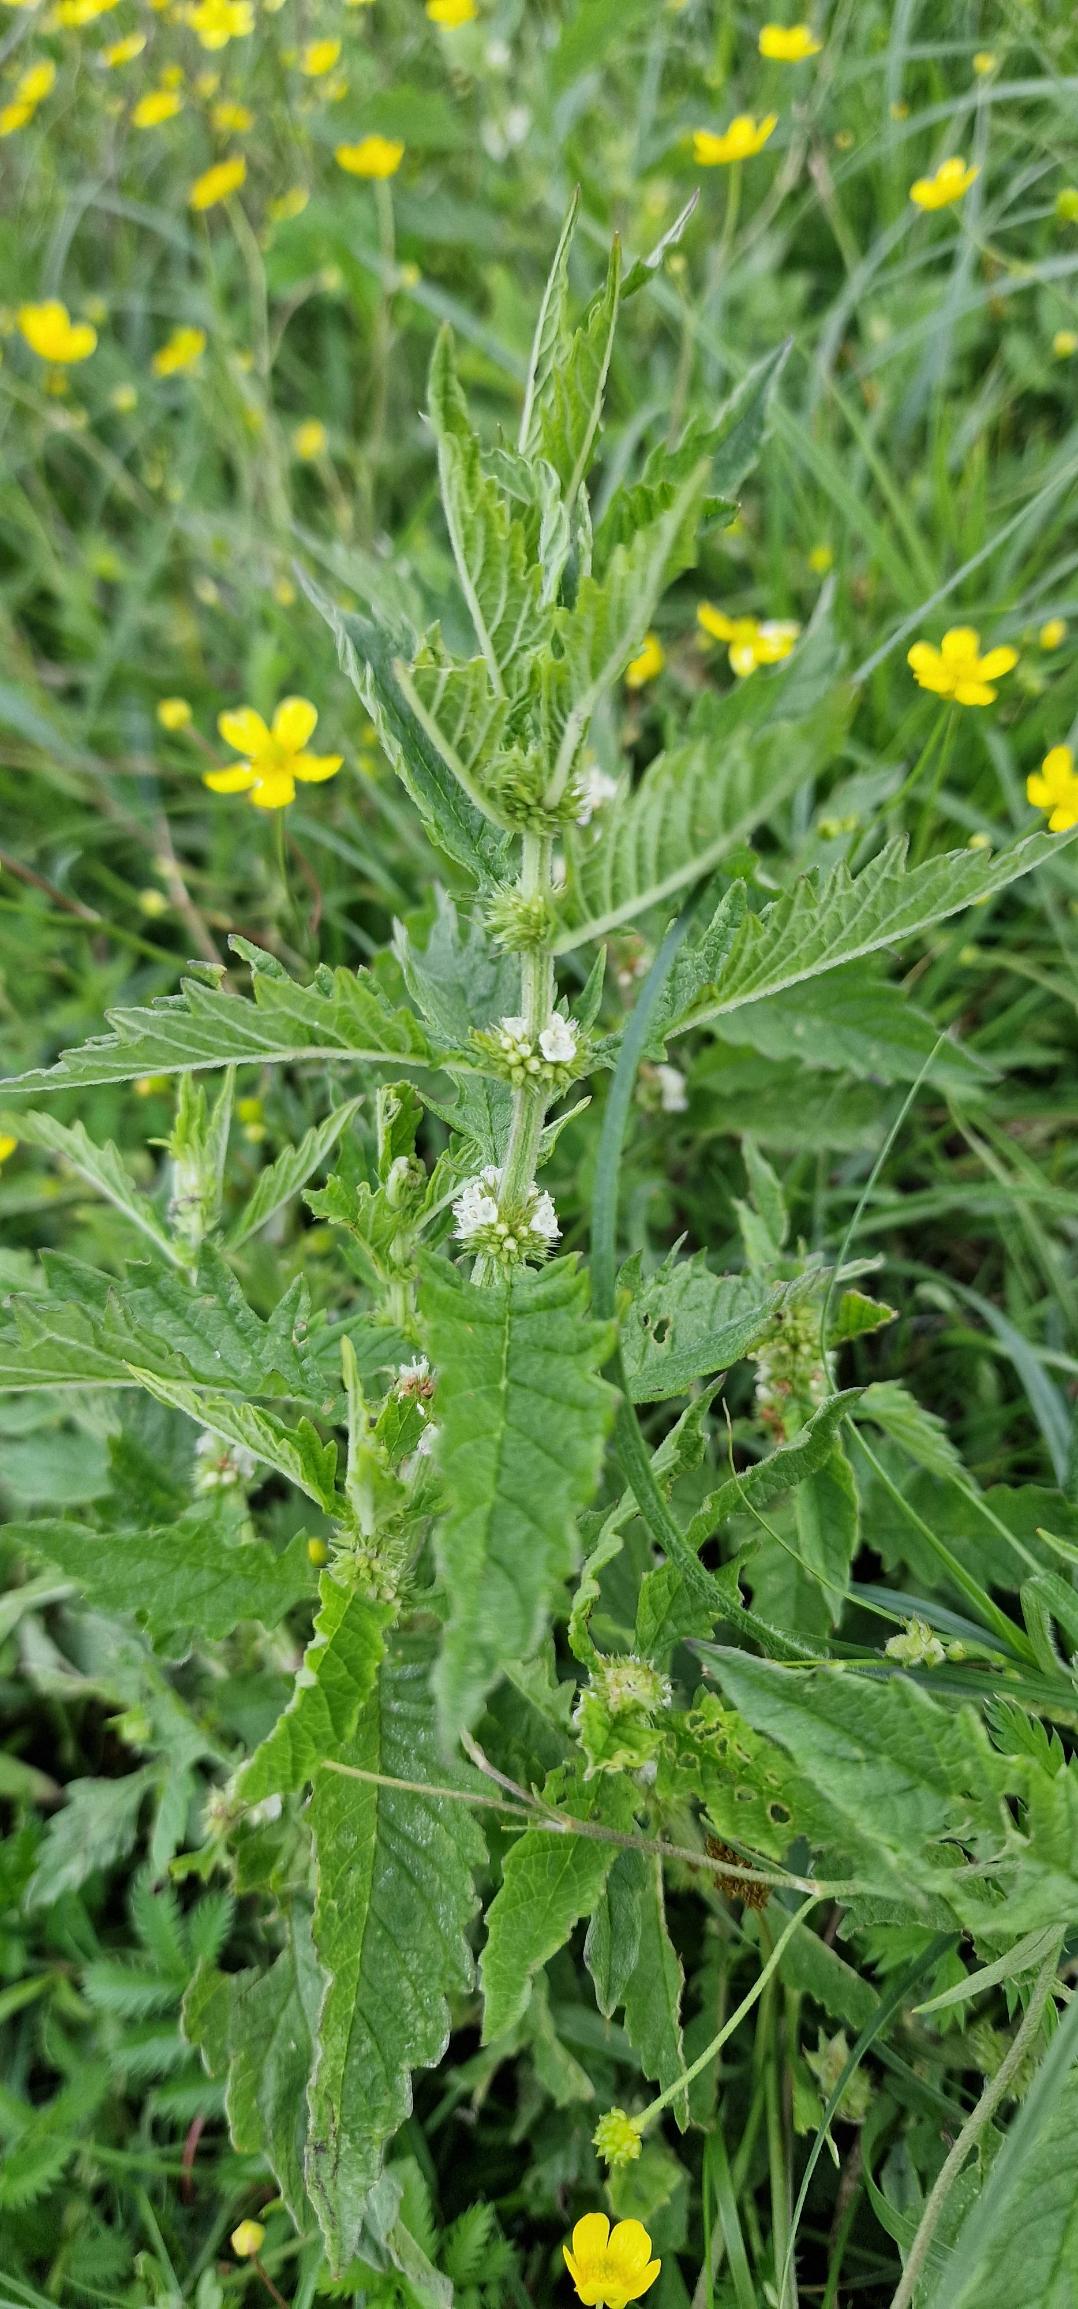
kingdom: Plantae
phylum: Tracheophyta
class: Magnoliopsida
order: Lamiales
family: Lamiaceae
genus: Lycopus
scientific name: Lycopus europaeus
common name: Sværtevæld
